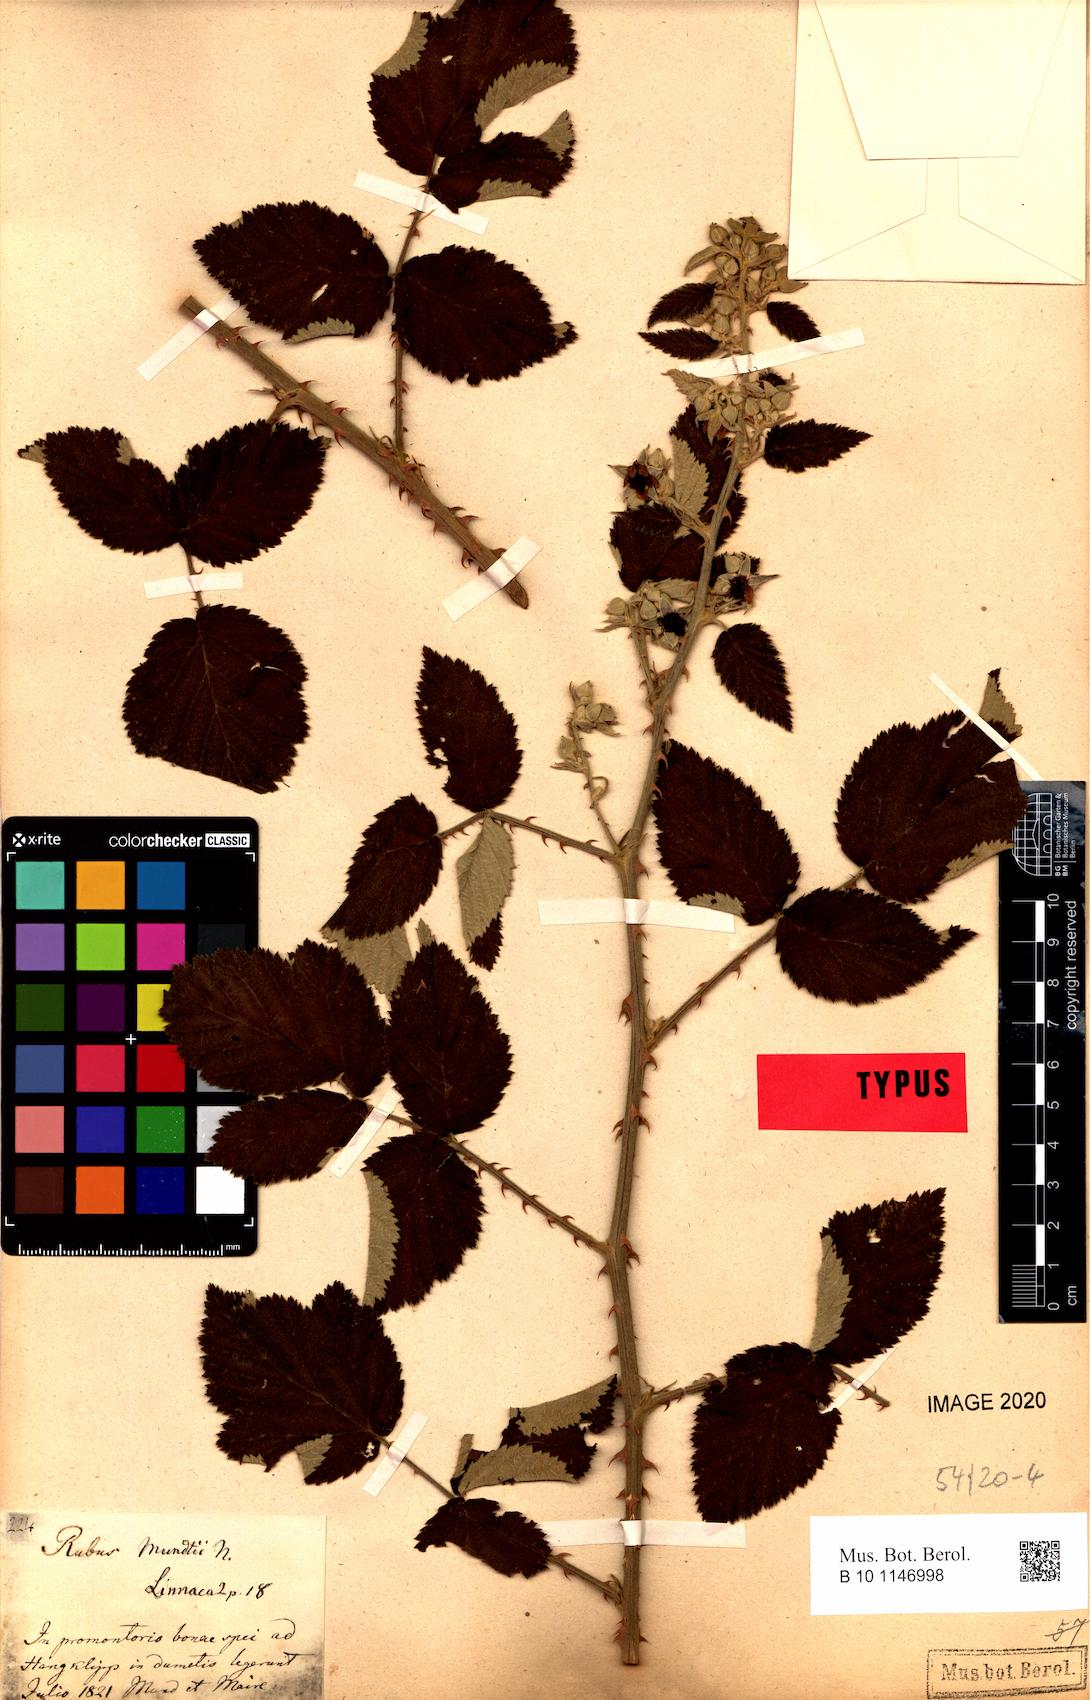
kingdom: Plantae
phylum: Tracheophyta
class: Magnoliopsida
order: Rosales
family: Rosaceae
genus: Rubus
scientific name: Rubus rigidus
